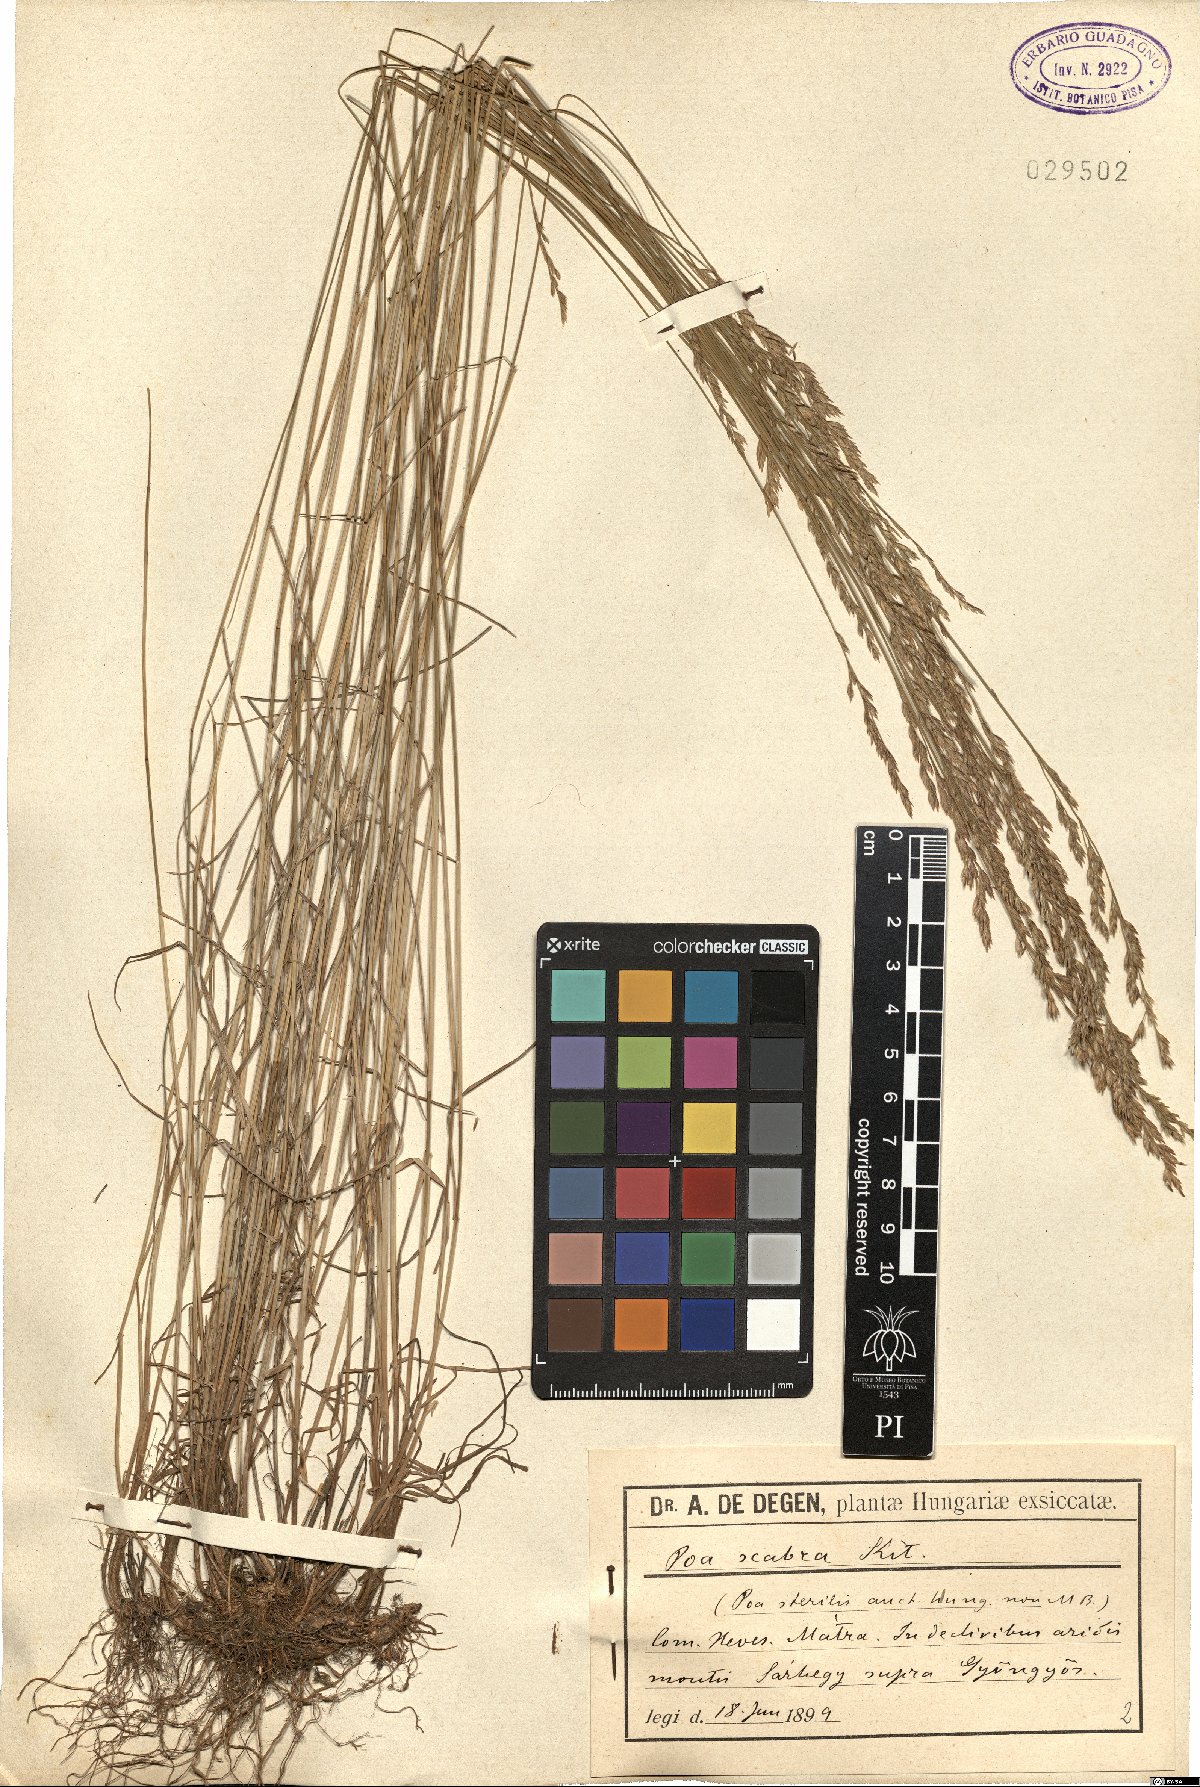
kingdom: Plantae
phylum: Tracheophyta
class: Liliopsida
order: Poales
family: Poaceae
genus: Poa
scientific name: Poa pannonica
